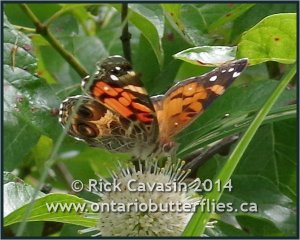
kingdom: Animalia
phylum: Arthropoda
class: Insecta
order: Lepidoptera
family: Nymphalidae
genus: Vanessa
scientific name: Vanessa virginiensis
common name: American Lady
